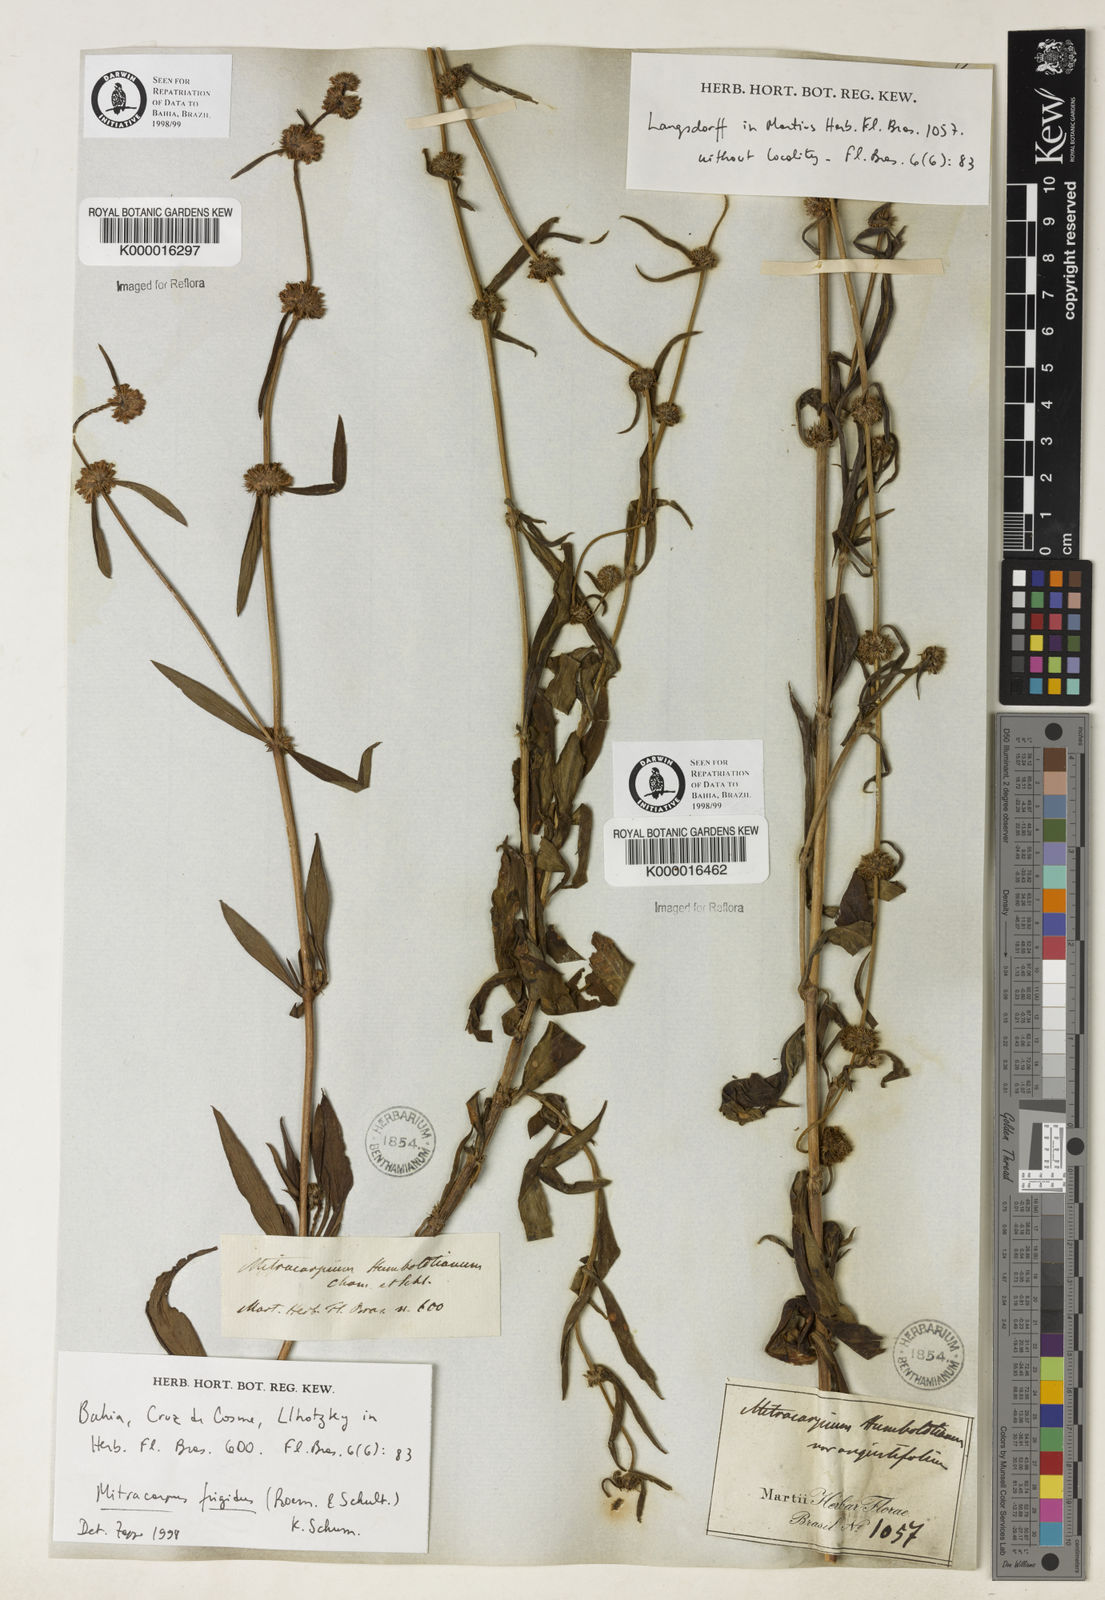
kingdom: Plantae
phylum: Tracheophyta
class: Magnoliopsida
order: Gentianales
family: Rubiaceae
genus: Mitracarpus
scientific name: Mitracarpus frigidus
